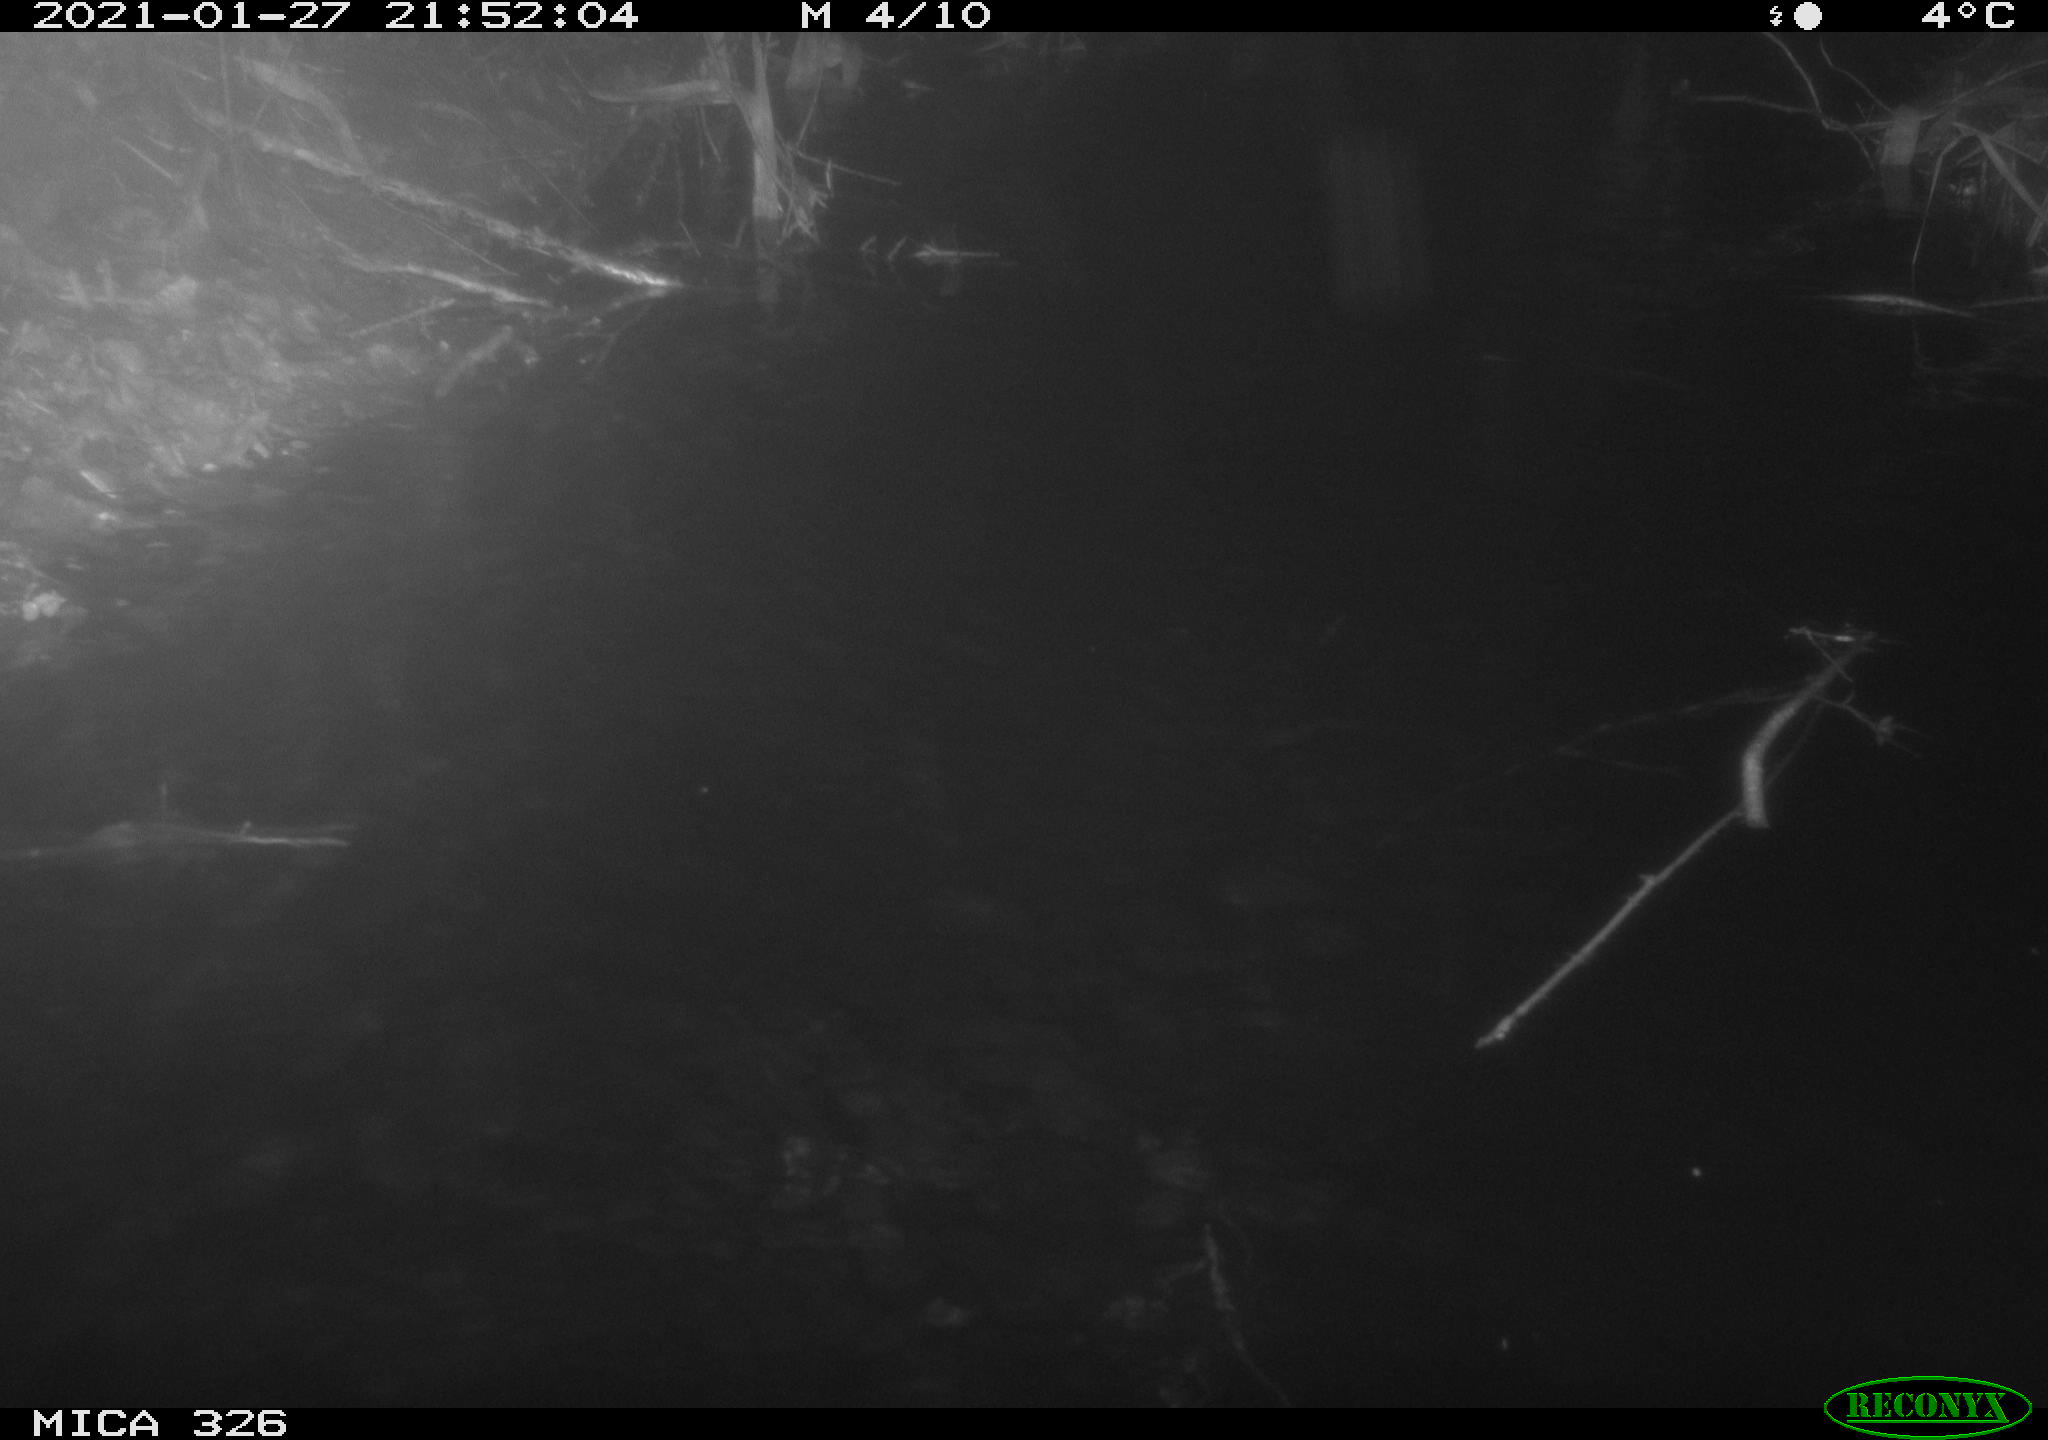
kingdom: Animalia
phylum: Chordata
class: Mammalia
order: Rodentia
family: Cricetidae
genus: Ondatra
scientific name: Ondatra zibethicus
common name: Muskrat
